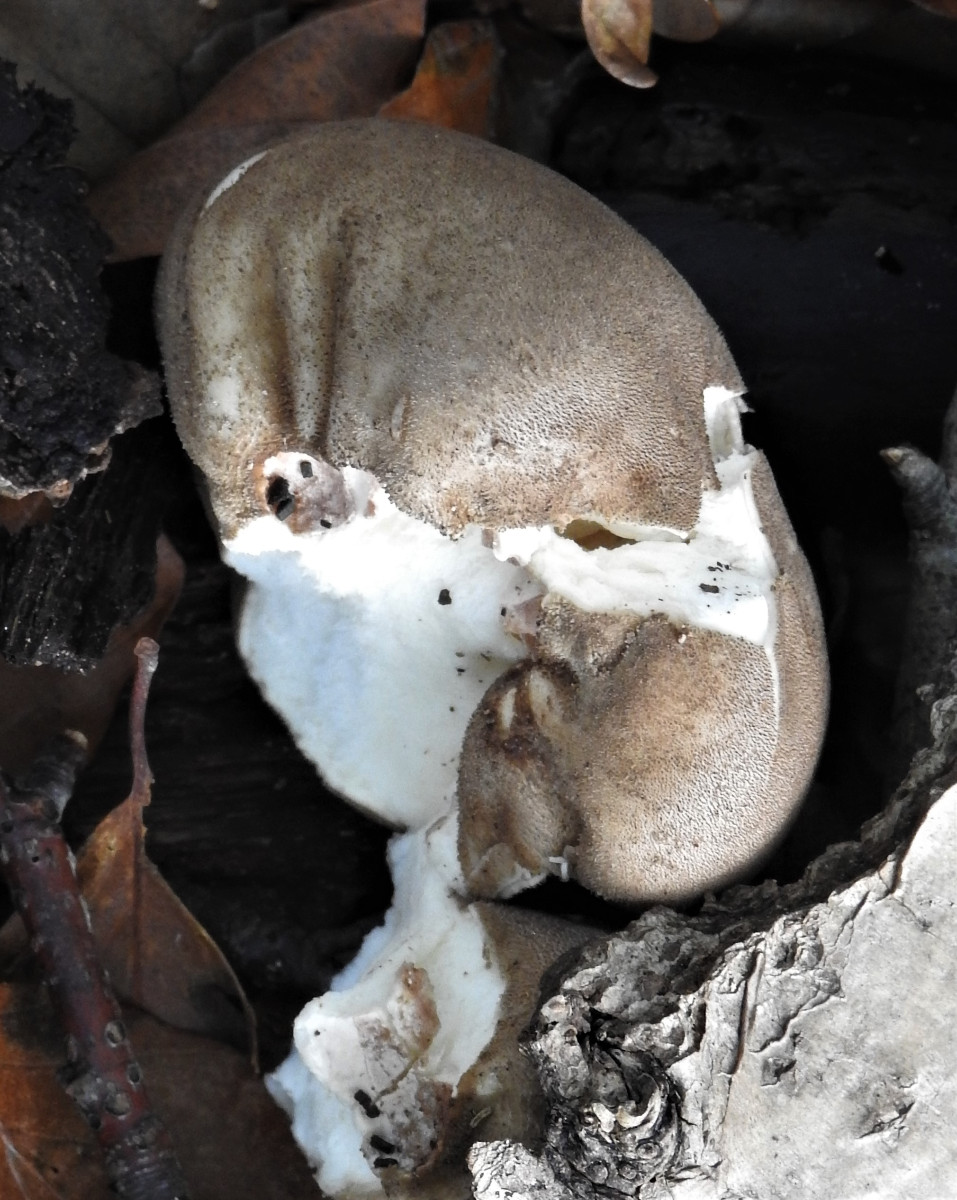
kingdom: Fungi
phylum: Basidiomycota
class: Agaricomycetes
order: Agaricales
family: Lycoperdaceae
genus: Lycoperdon
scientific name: Lycoperdon molle
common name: skov-støvbold
